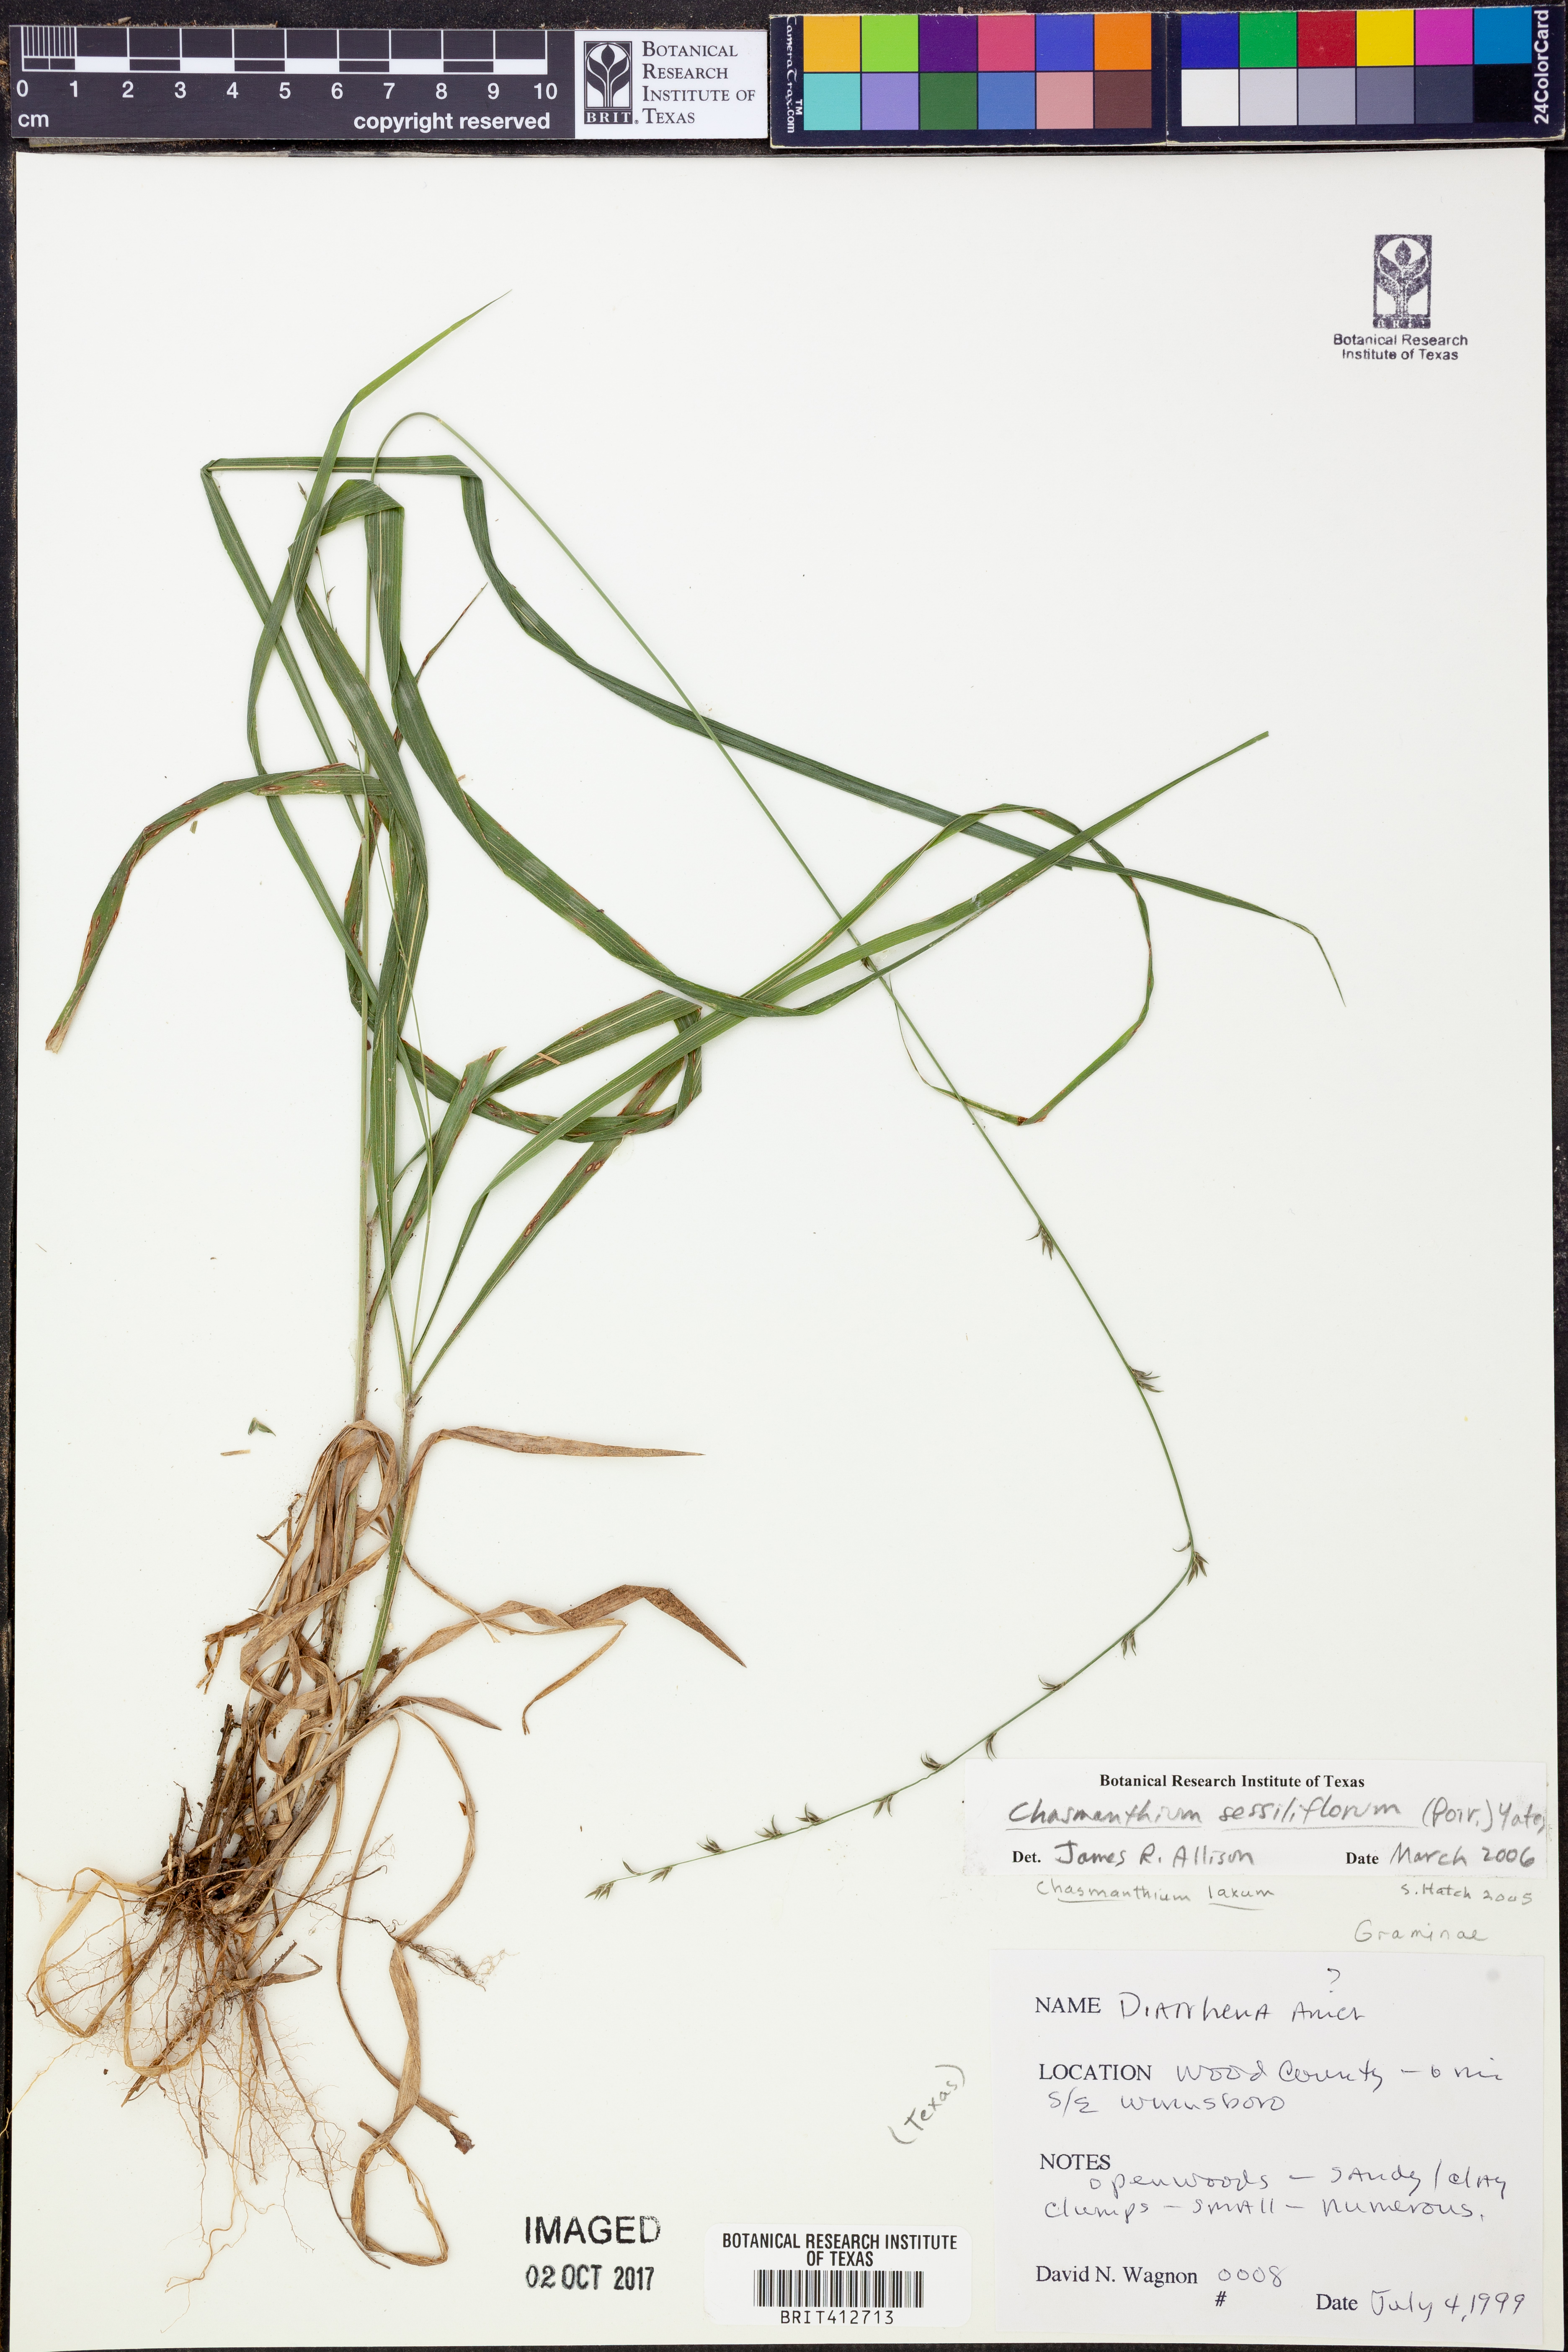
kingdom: Plantae
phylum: Tracheophyta
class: Liliopsida
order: Poales
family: Poaceae
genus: Chasmanthium
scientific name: Chasmanthium laxum
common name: Slender chasmanthium
